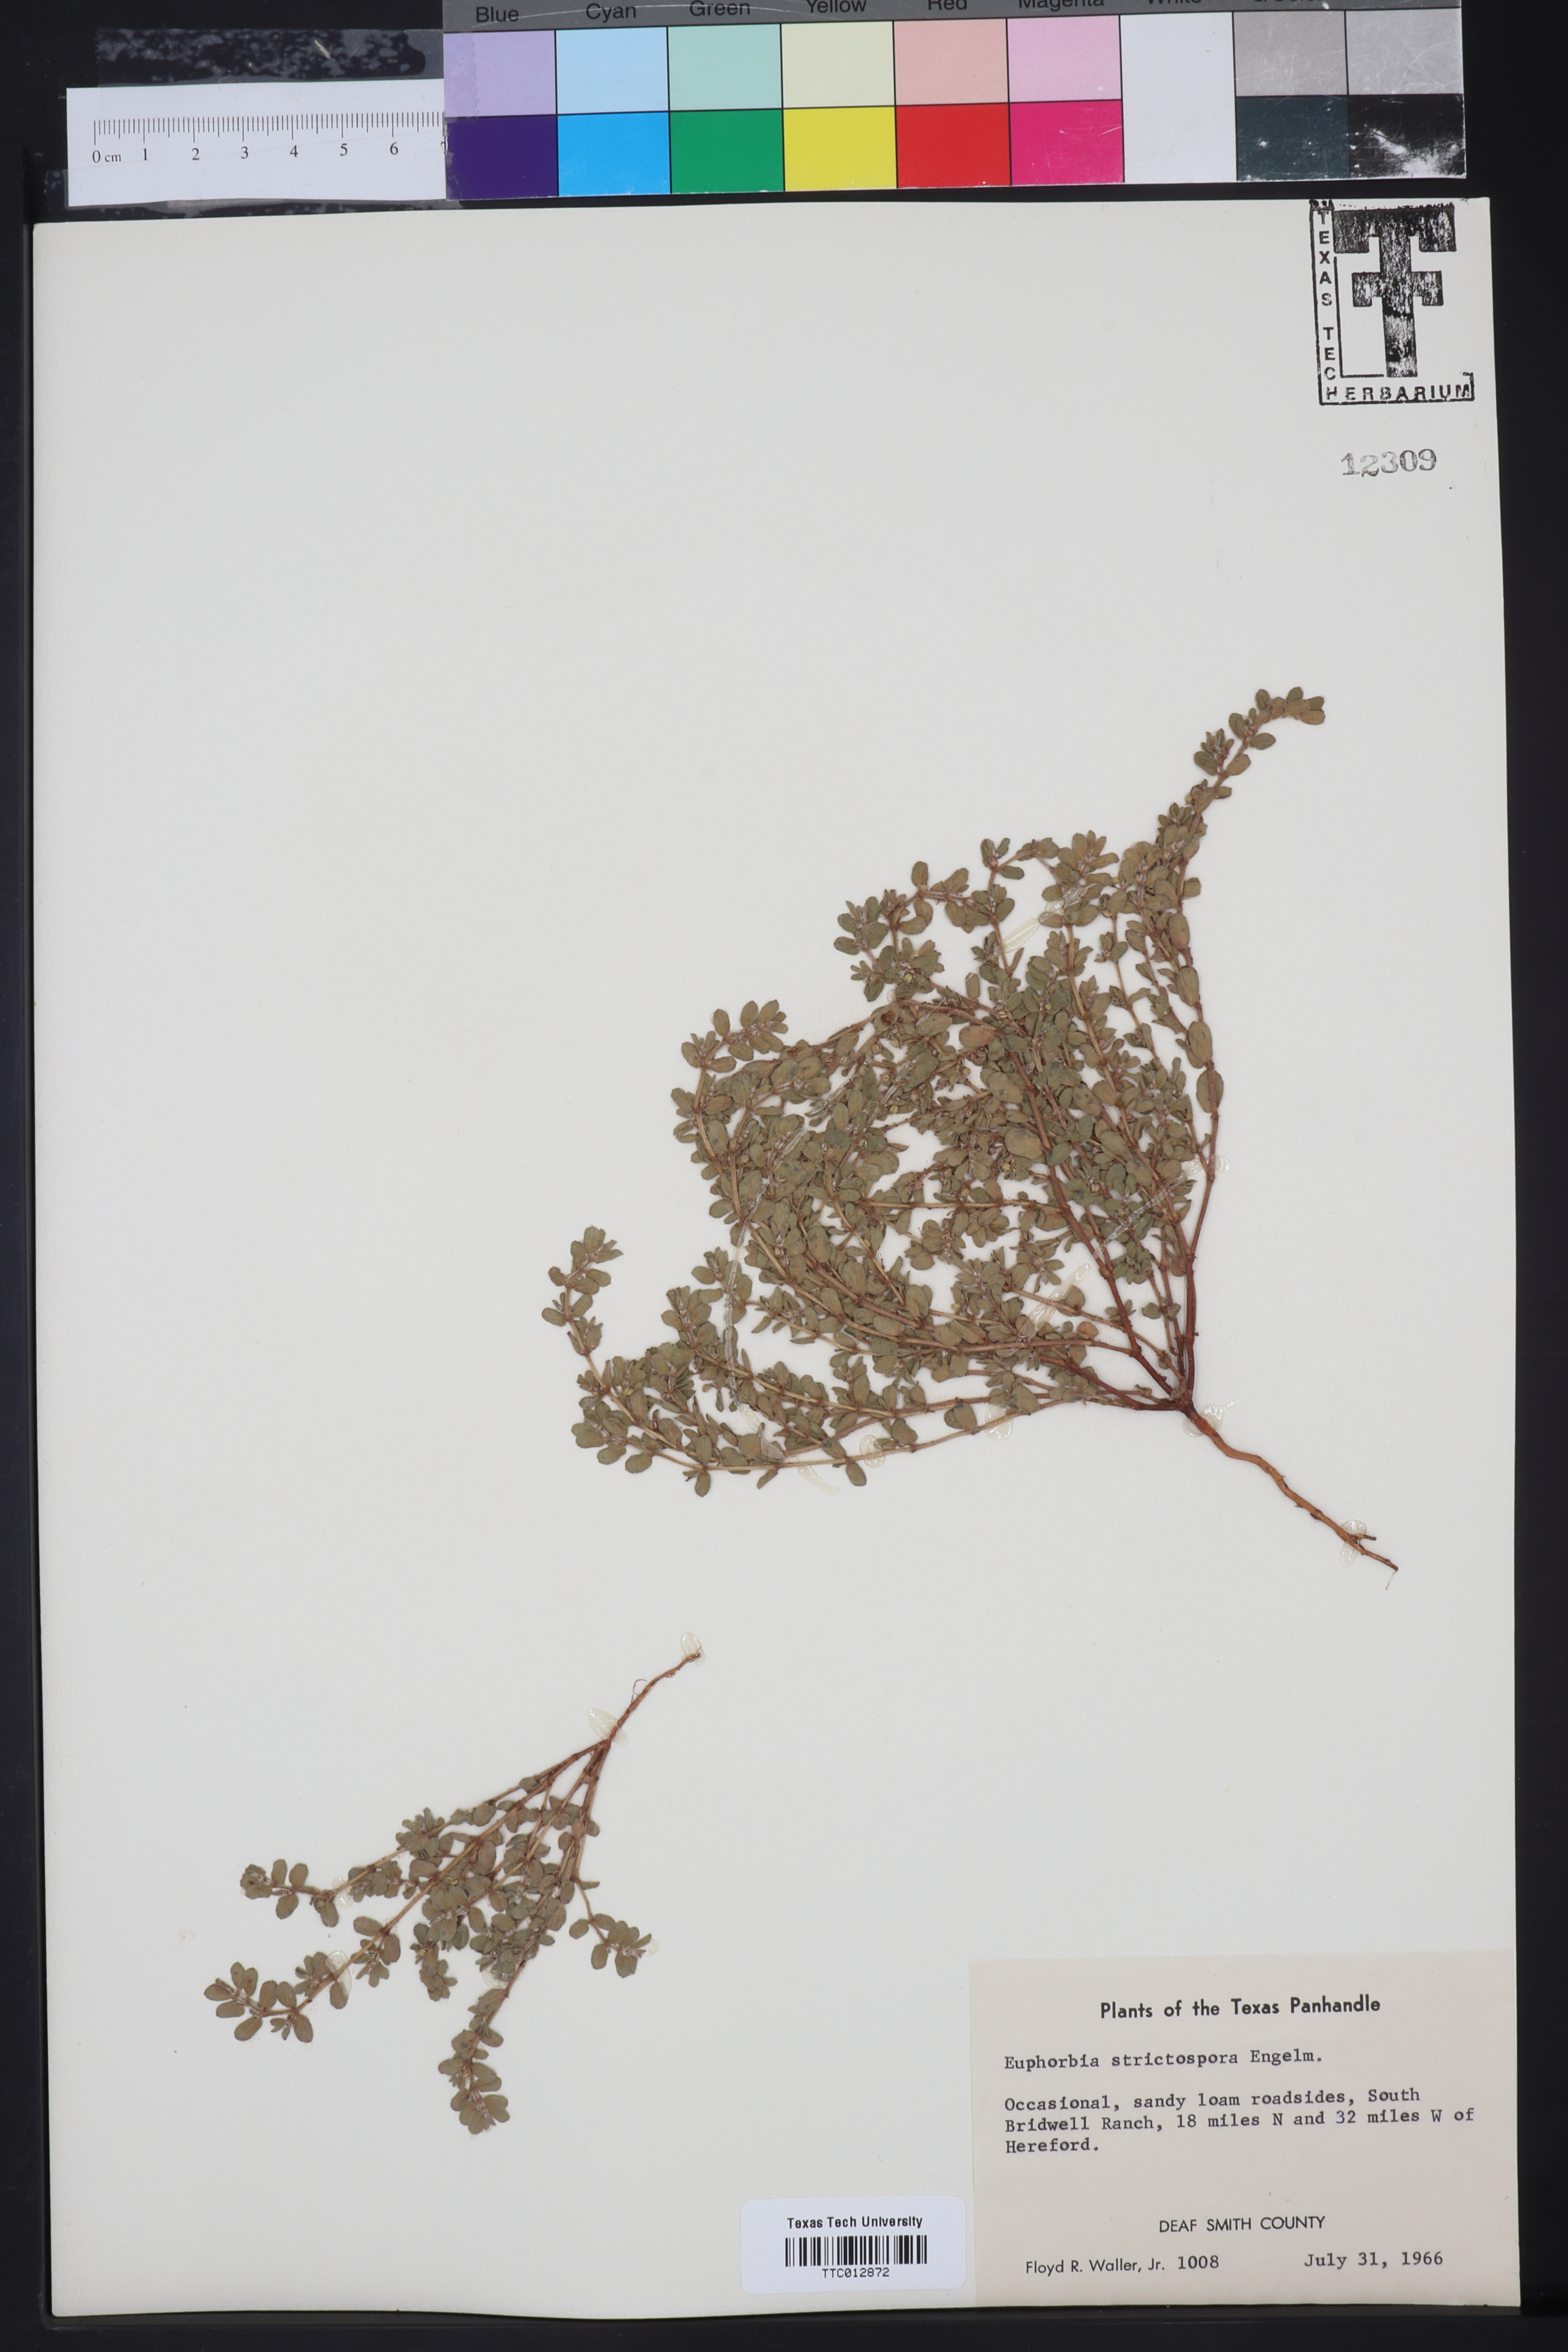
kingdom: Plantae
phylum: Tracheophyta
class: Magnoliopsida
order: Malpighiales
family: Euphorbiaceae
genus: Euphorbia
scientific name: Euphorbia
